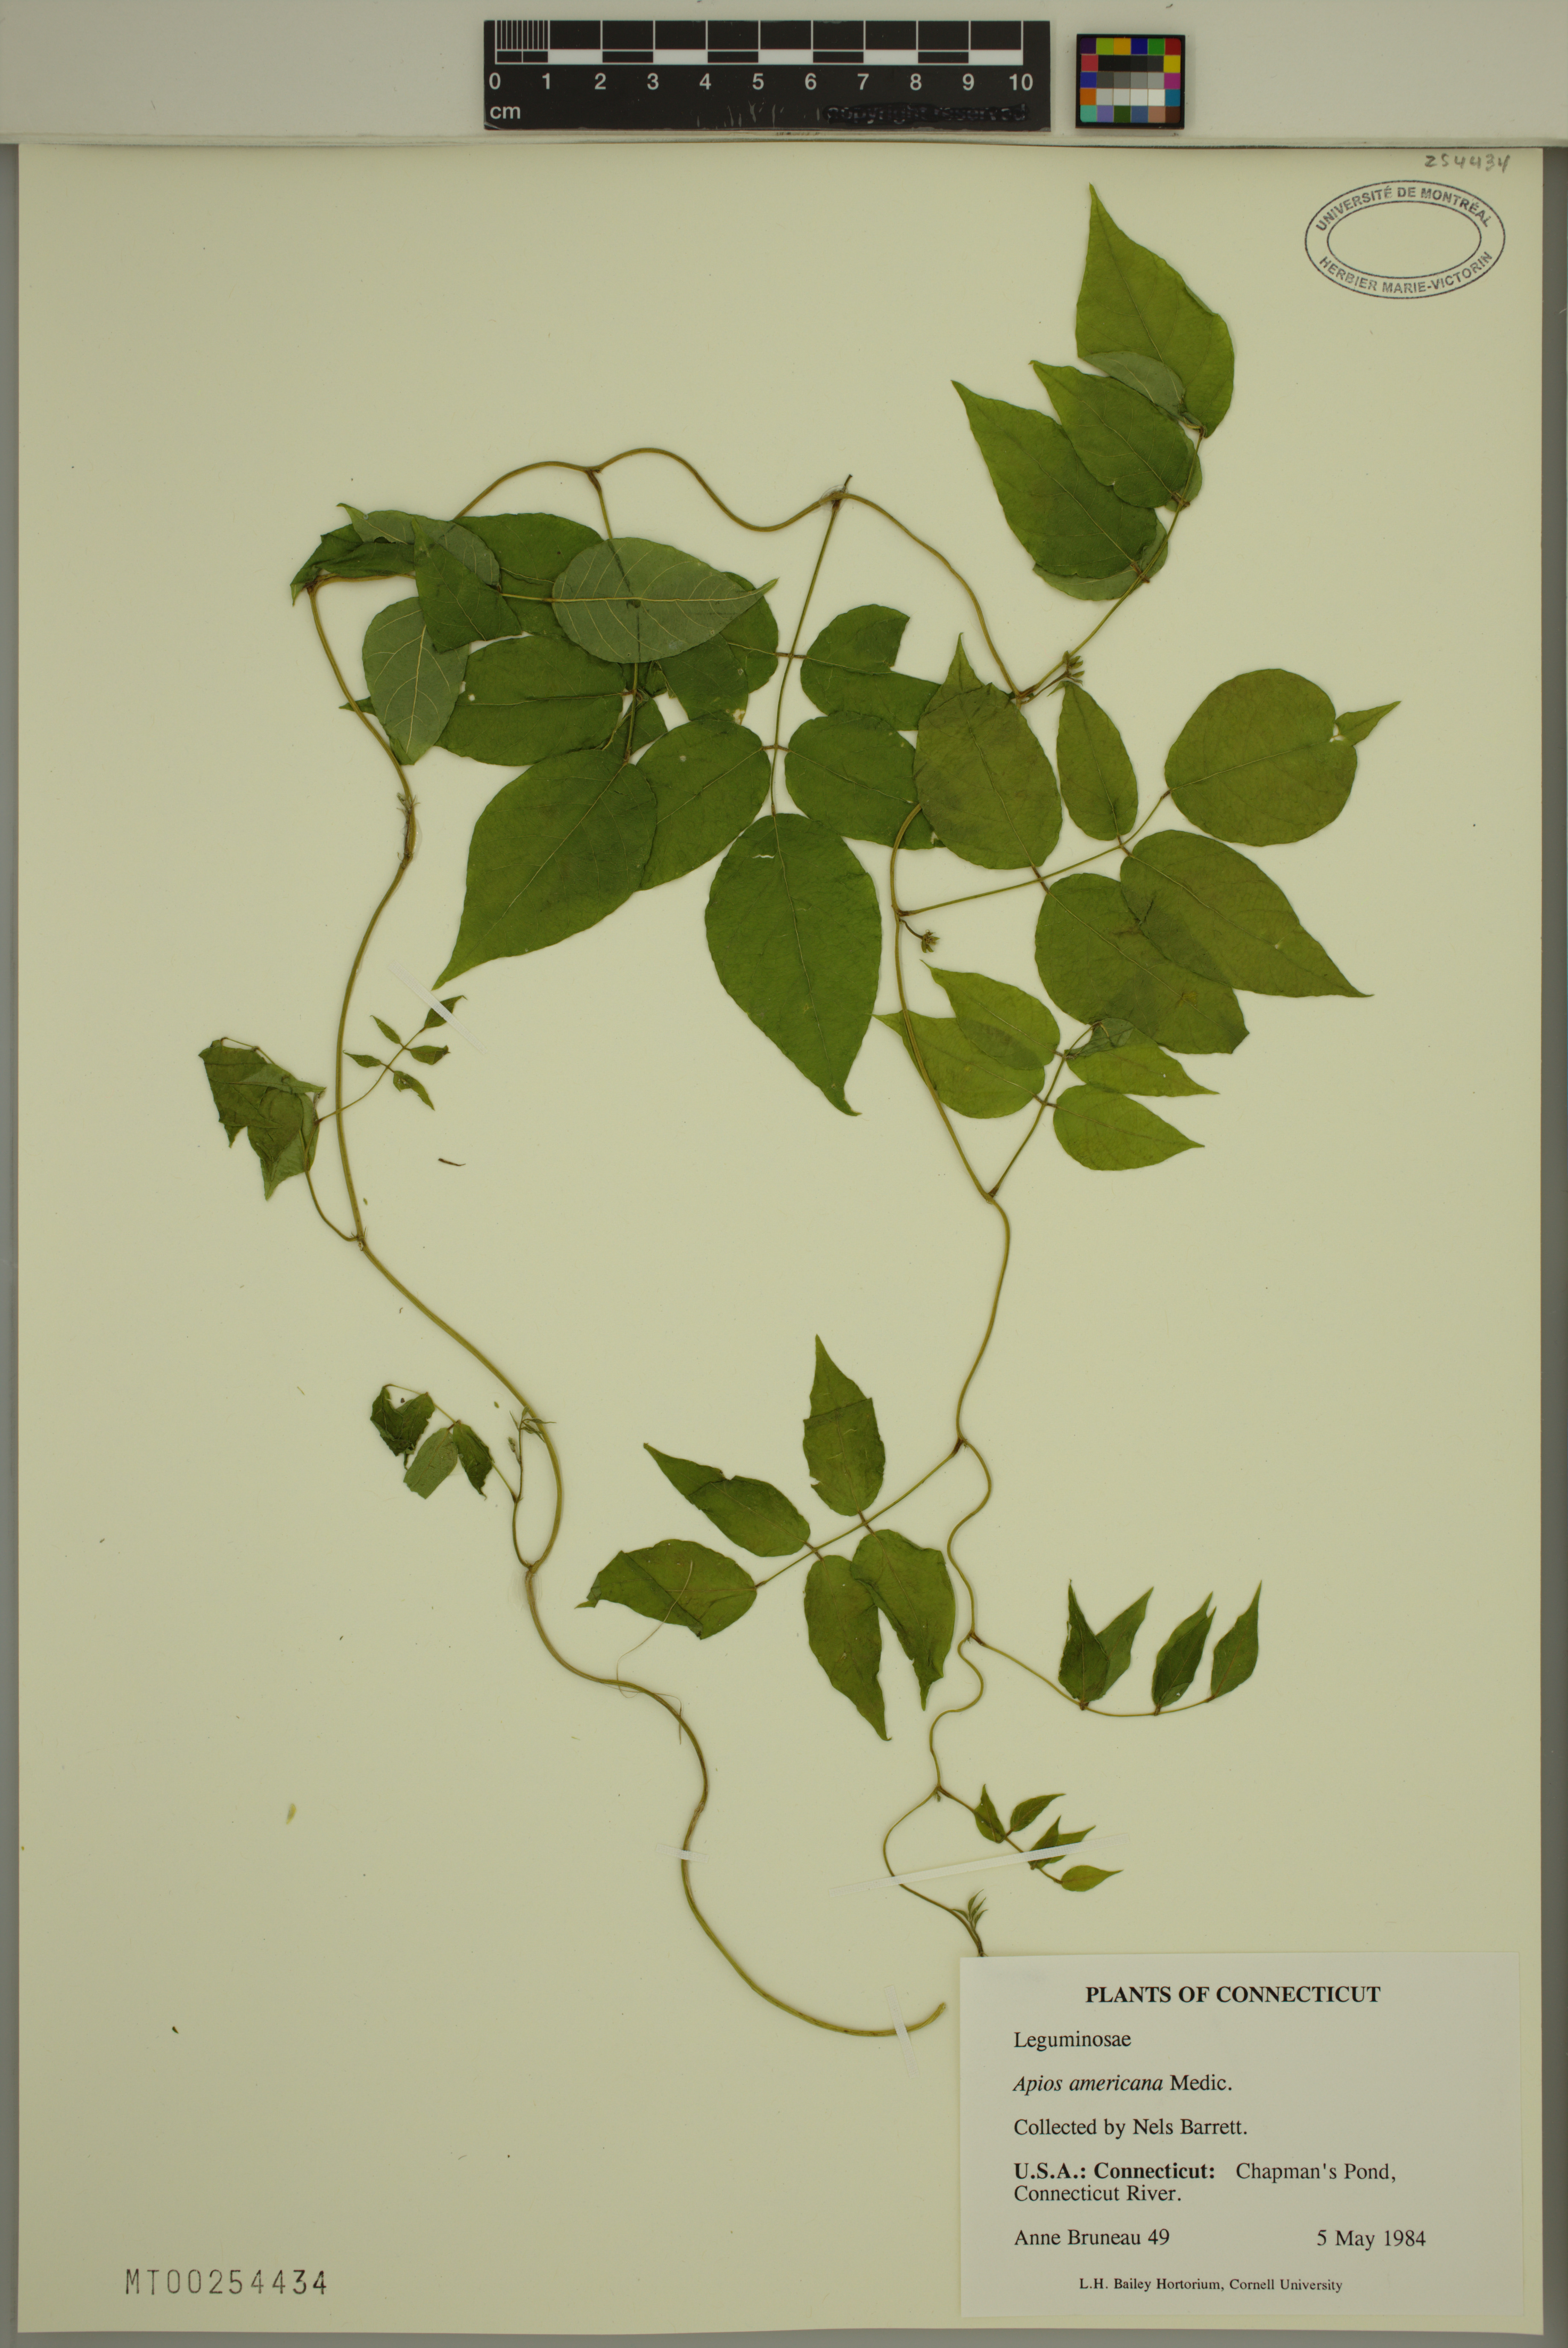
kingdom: Plantae
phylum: Tracheophyta
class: Magnoliopsida
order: Fabales
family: Fabaceae
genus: Apios
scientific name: Apios americana
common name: American potato-bean
